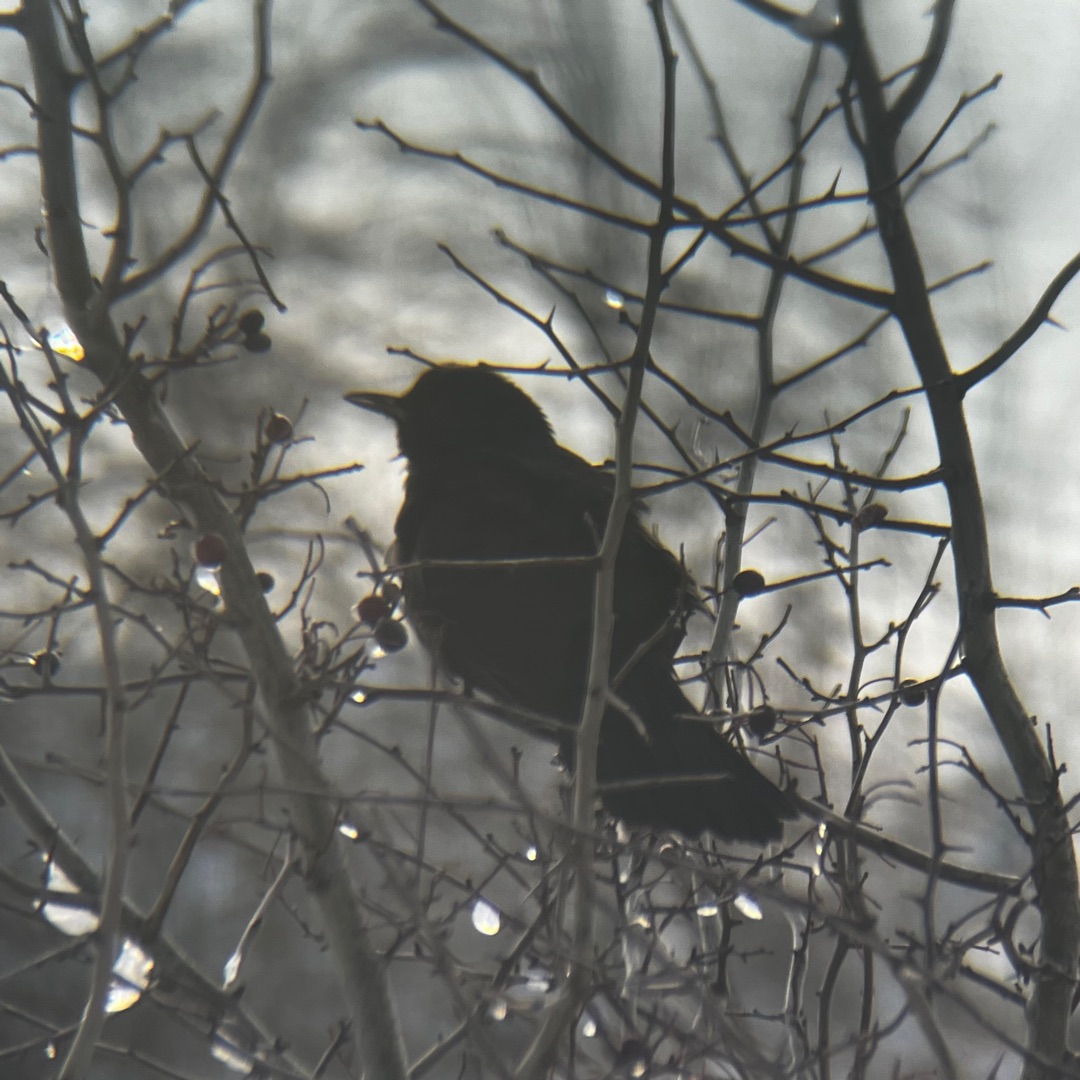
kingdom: Animalia
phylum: Chordata
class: Aves
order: Passeriformes
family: Turdidae
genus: Turdus
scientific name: Turdus merula
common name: Solsort
